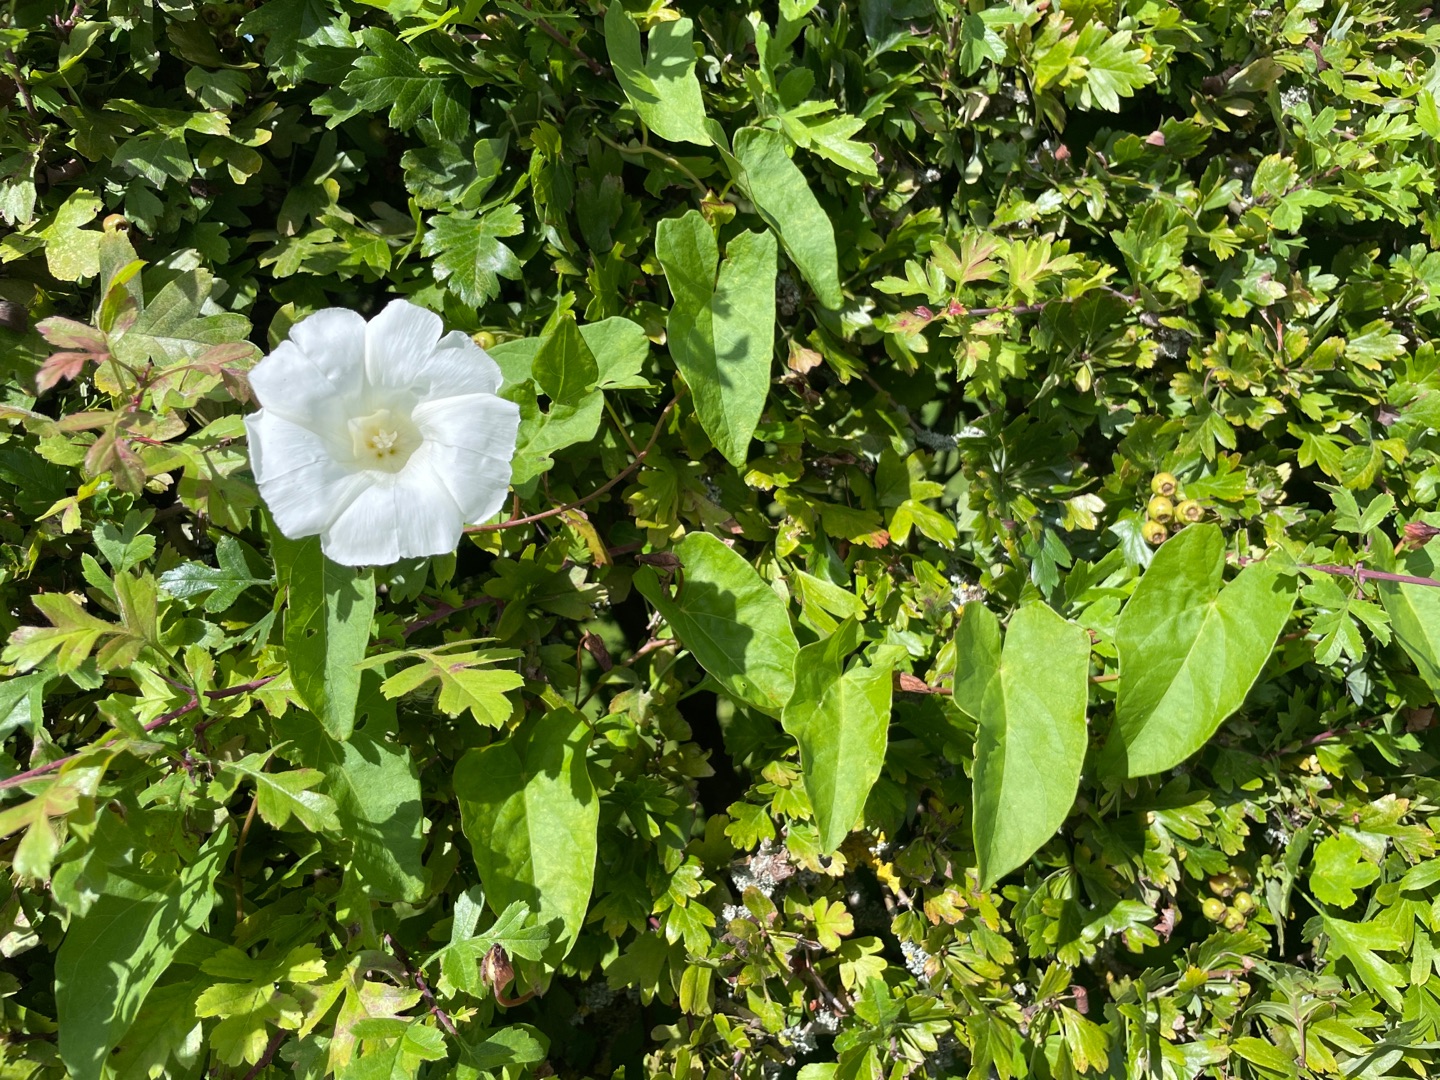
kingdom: Plantae
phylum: Tracheophyta
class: Magnoliopsida
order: Solanales
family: Convolvulaceae
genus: Calystegia
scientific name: Calystegia sepium
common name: Gærde-snerle
